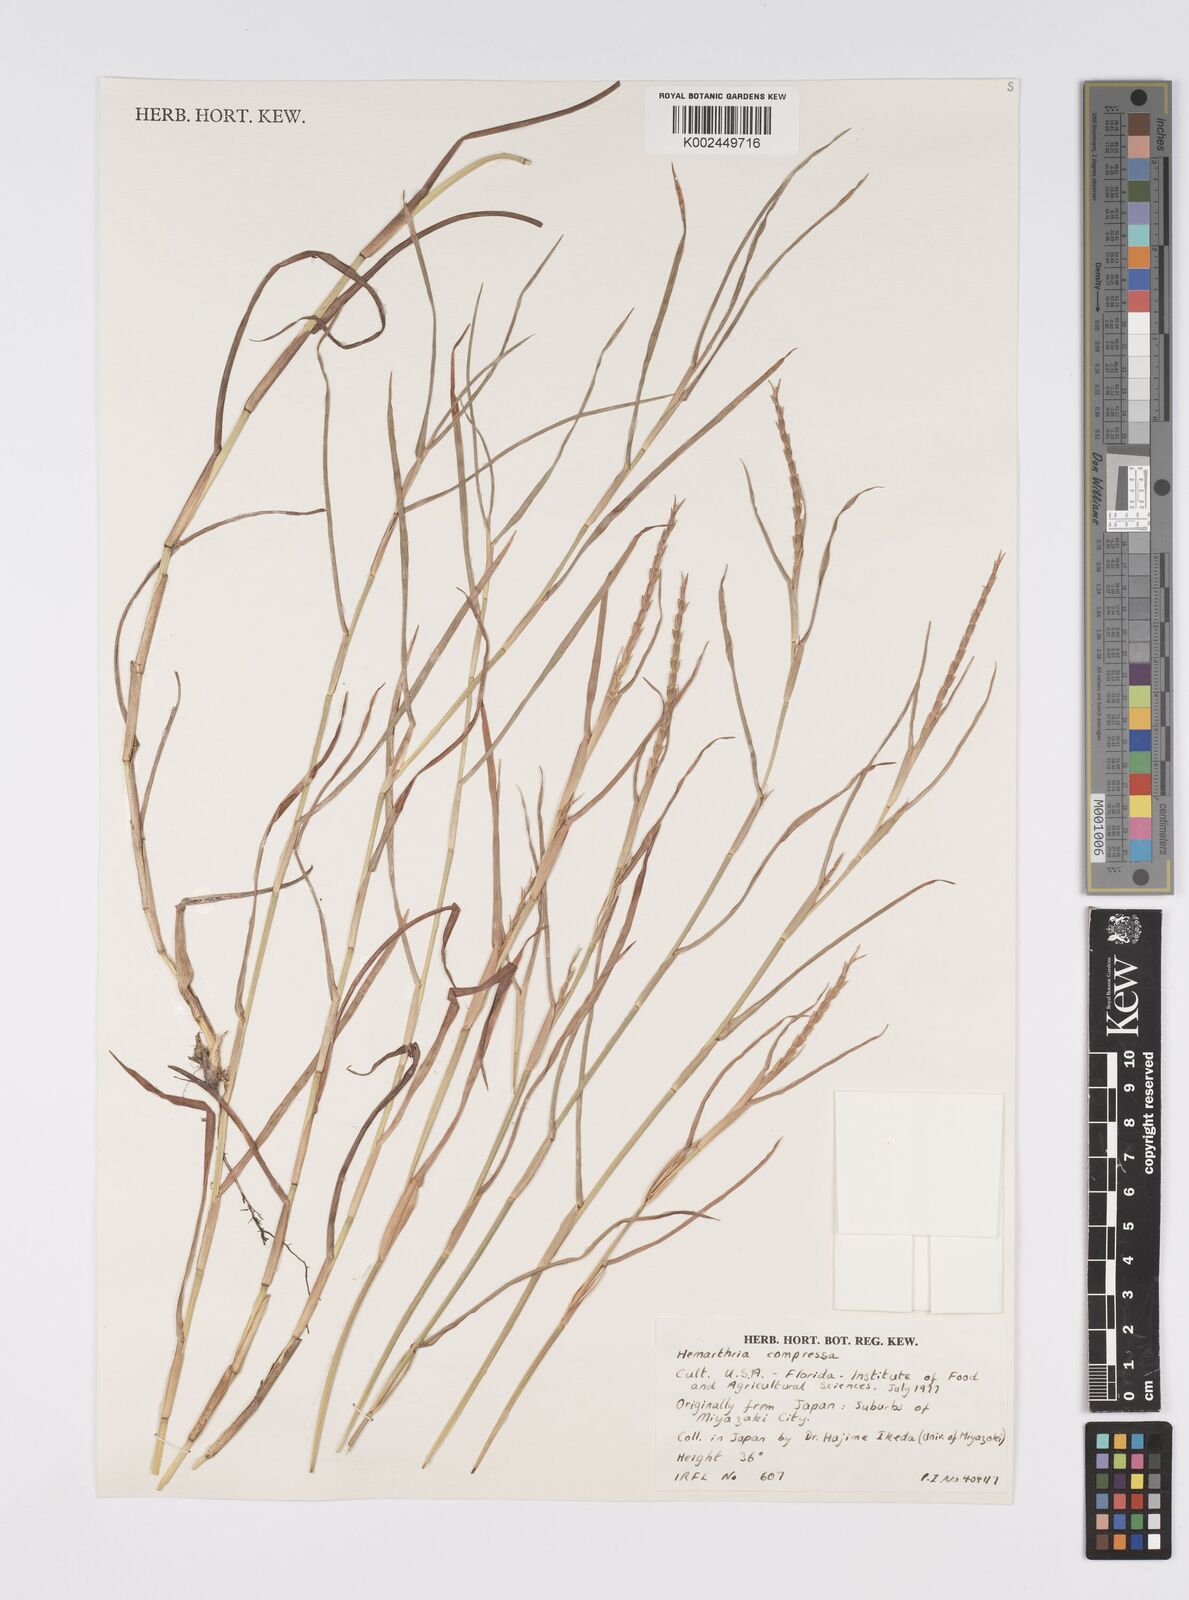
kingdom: Plantae
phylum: Tracheophyta
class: Liliopsida
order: Poales
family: Poaceae
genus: Hemarthria
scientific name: Hemarthria compressa
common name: Whip grass
